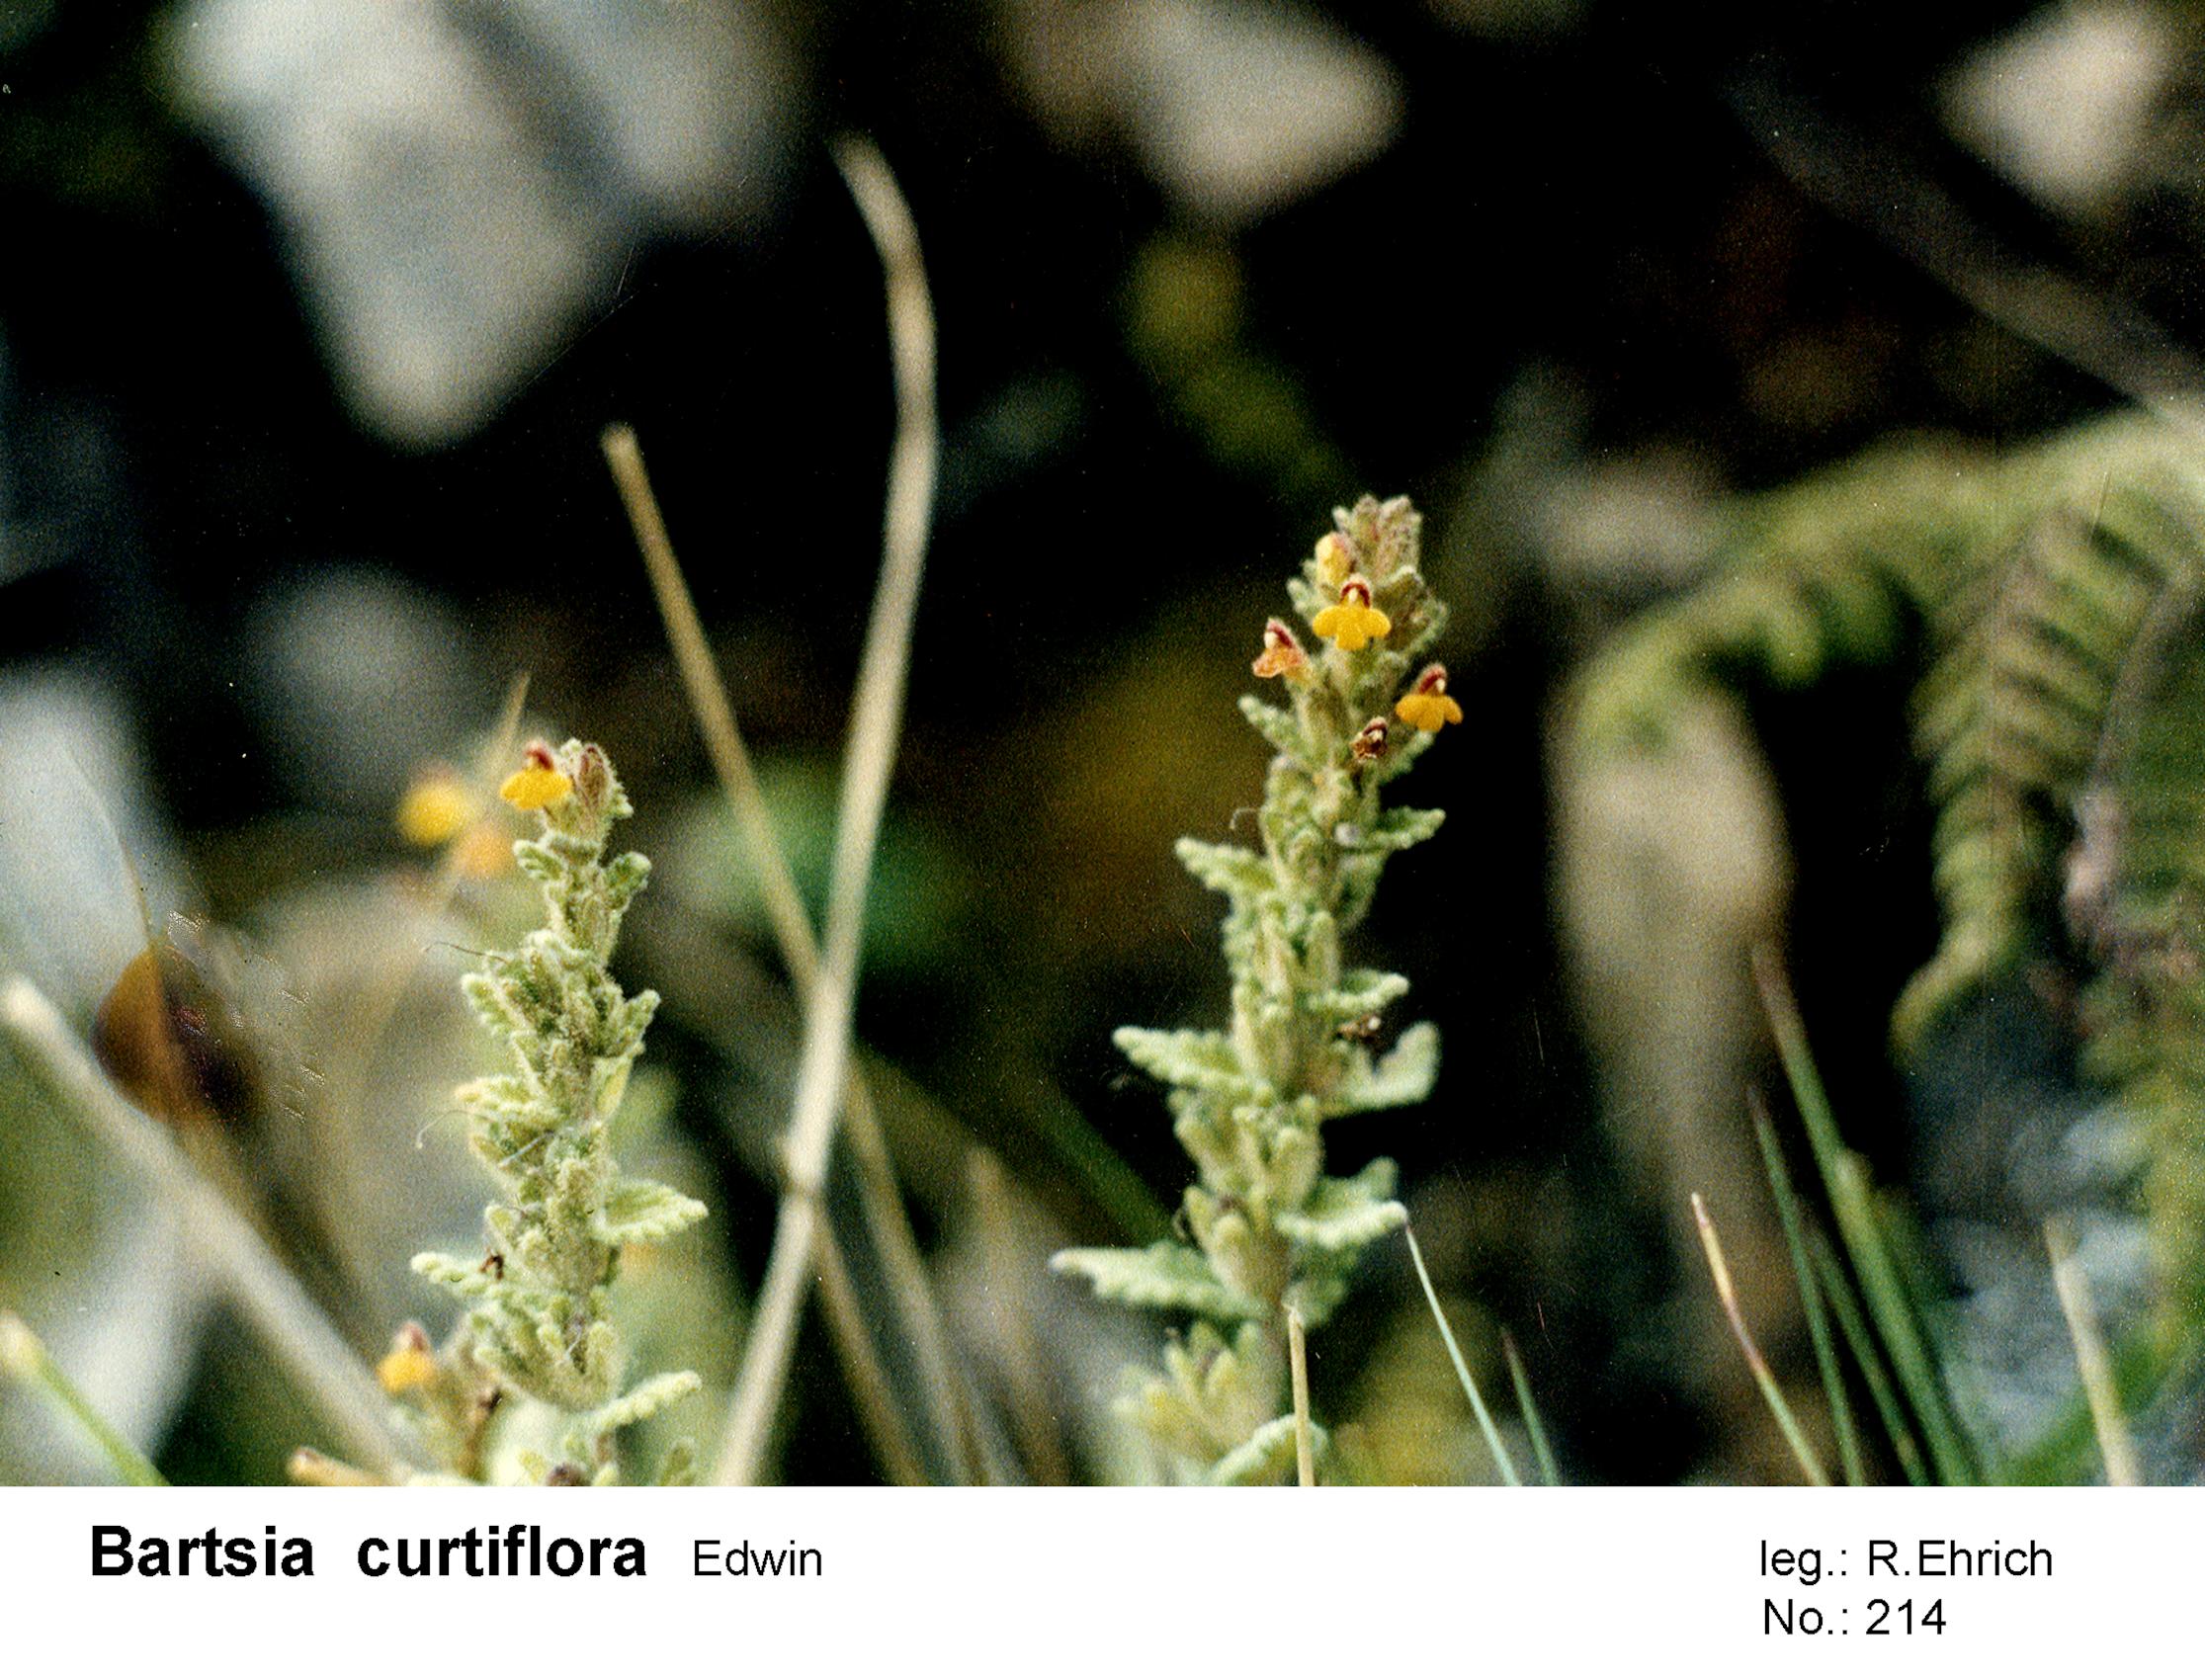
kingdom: Plantae
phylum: Tracheophyta
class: Magnoliopsida
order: Lamiales
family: Orobanchaceae
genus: Neobartsia
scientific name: Neobartsia fiebrigii
